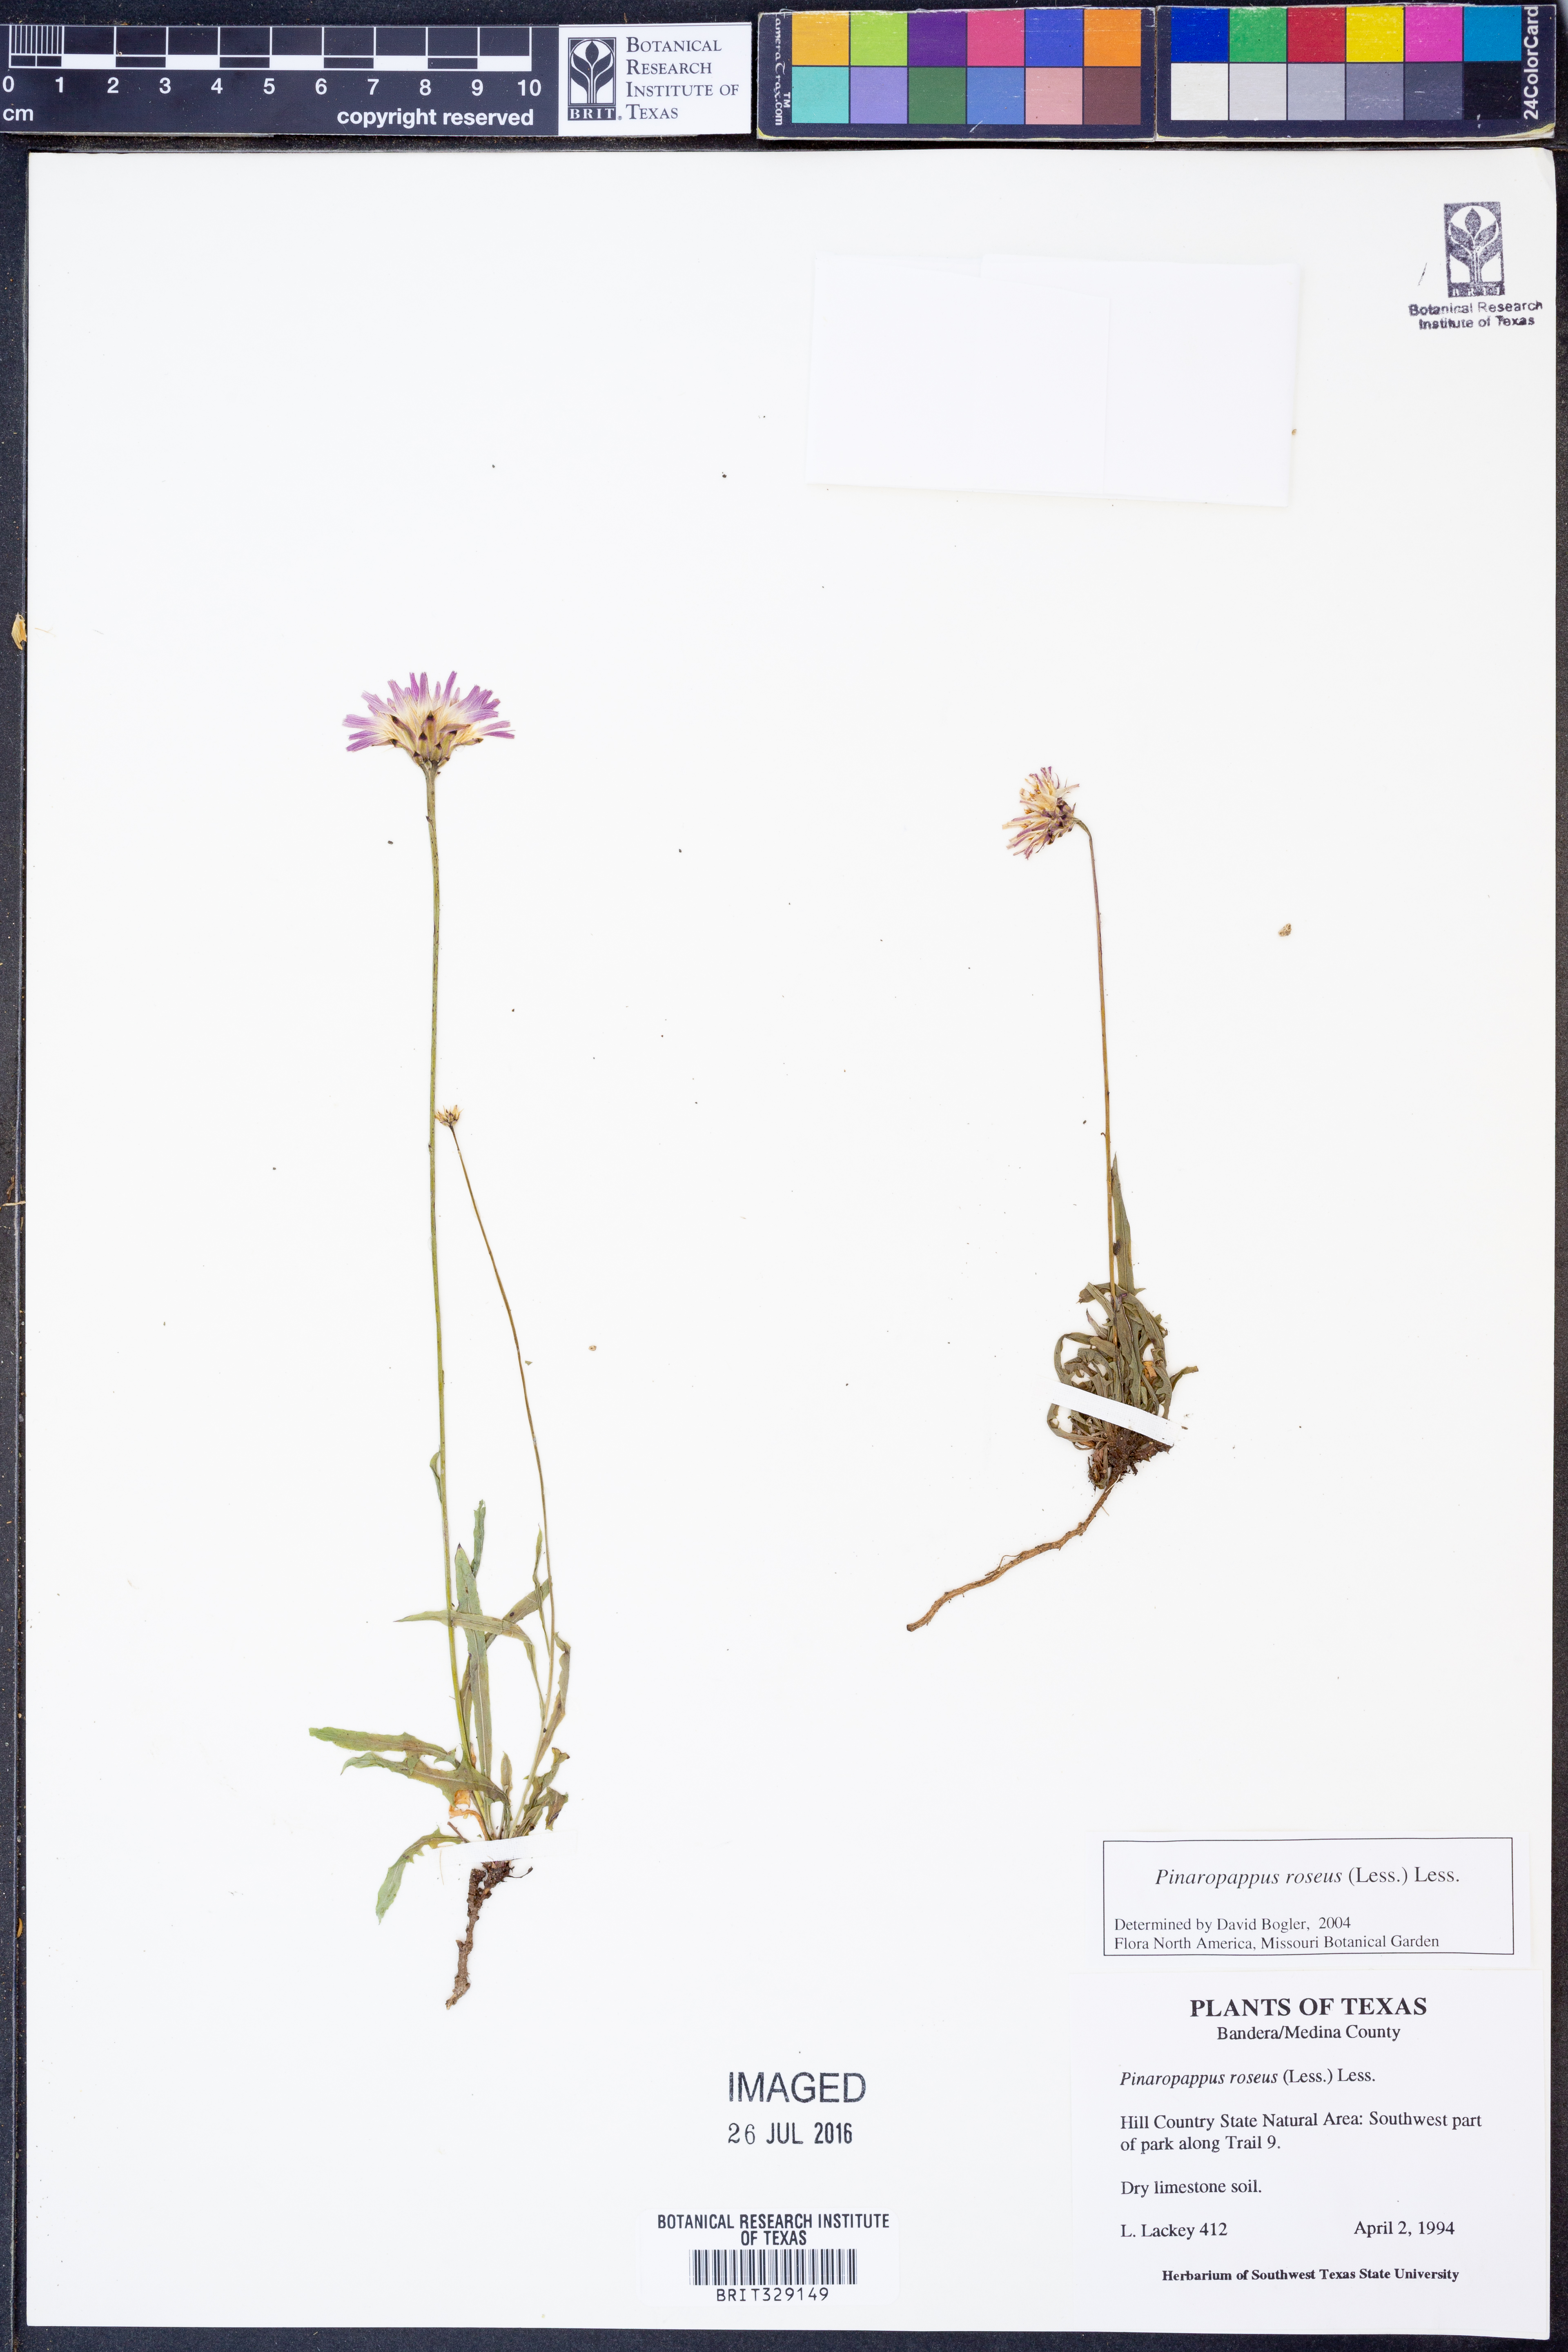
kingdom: Plantae
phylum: Tracheophyta
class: Magnoliopsida
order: Asterales
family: Asteraceae
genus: Pinaropappus
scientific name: Pinaropappus roseus
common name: Rock-lettuce
